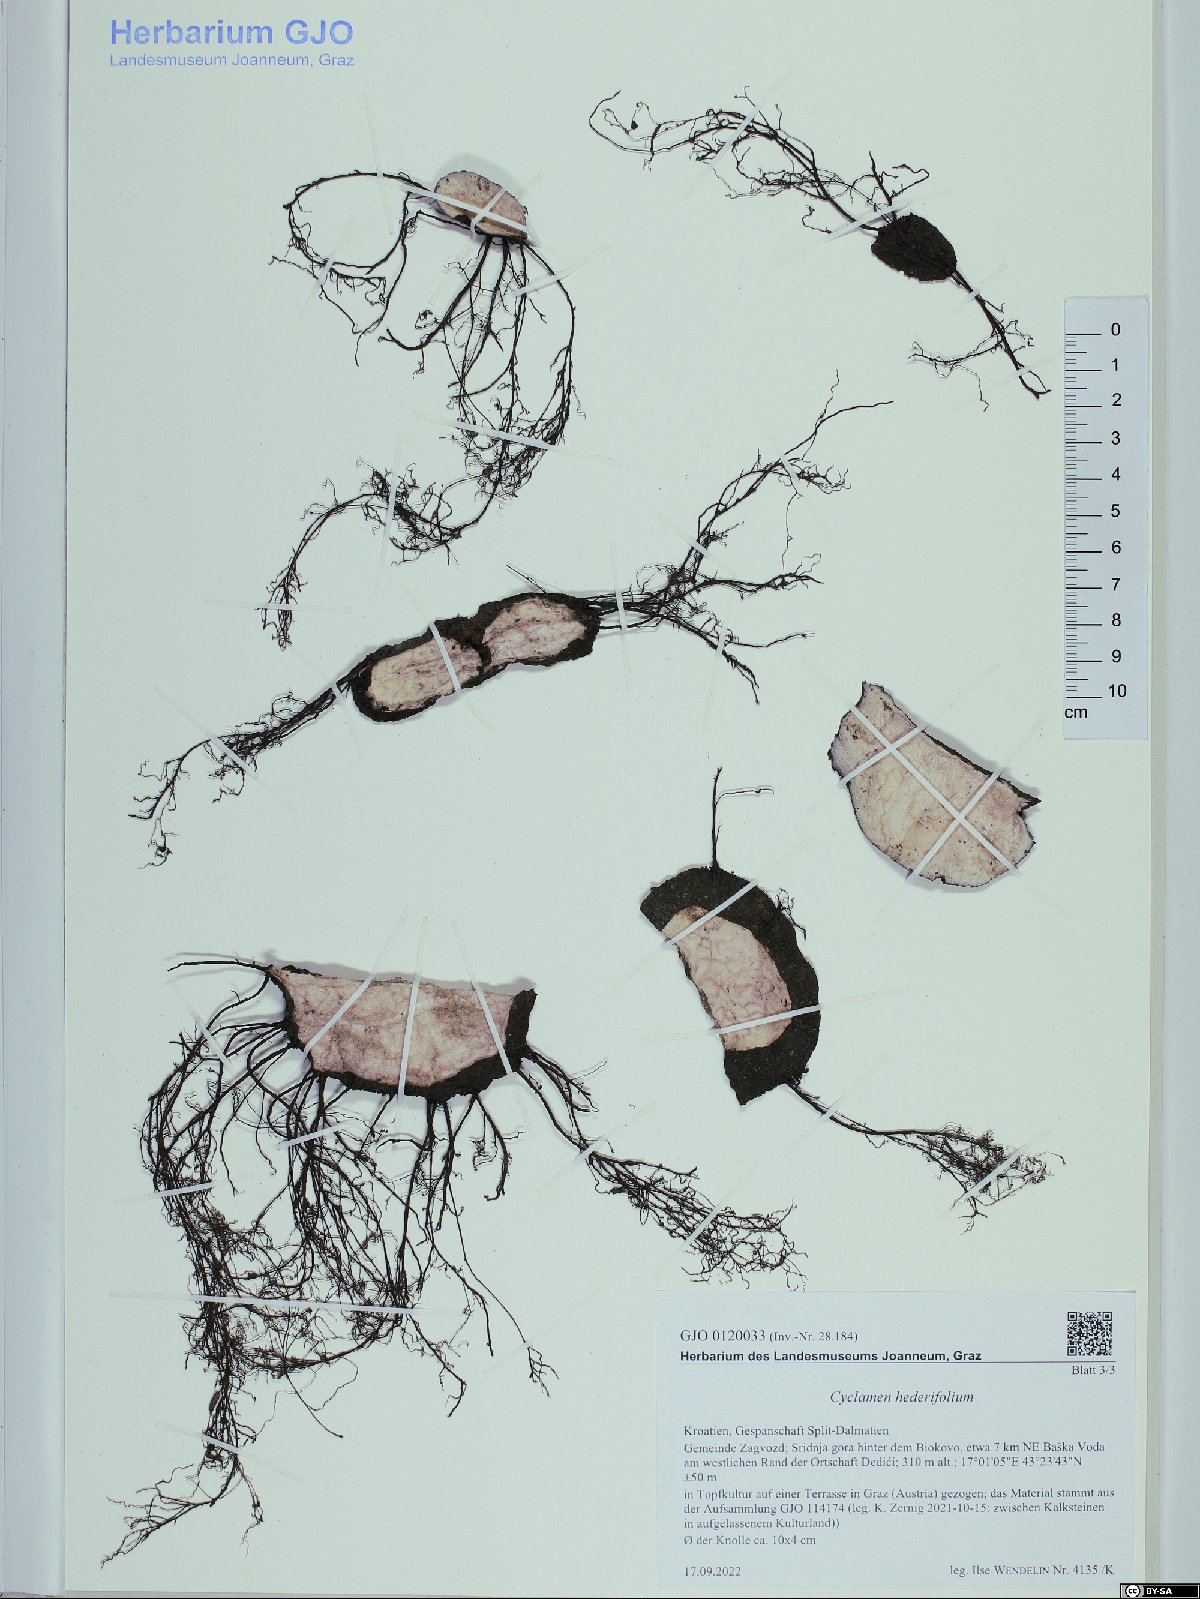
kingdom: Plantae
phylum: Tracheophyta
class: Magnoliopsida
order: Ericales
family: Primulaceae
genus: Cyclamen
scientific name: Cyclamen hederifolium
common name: Sowbread
